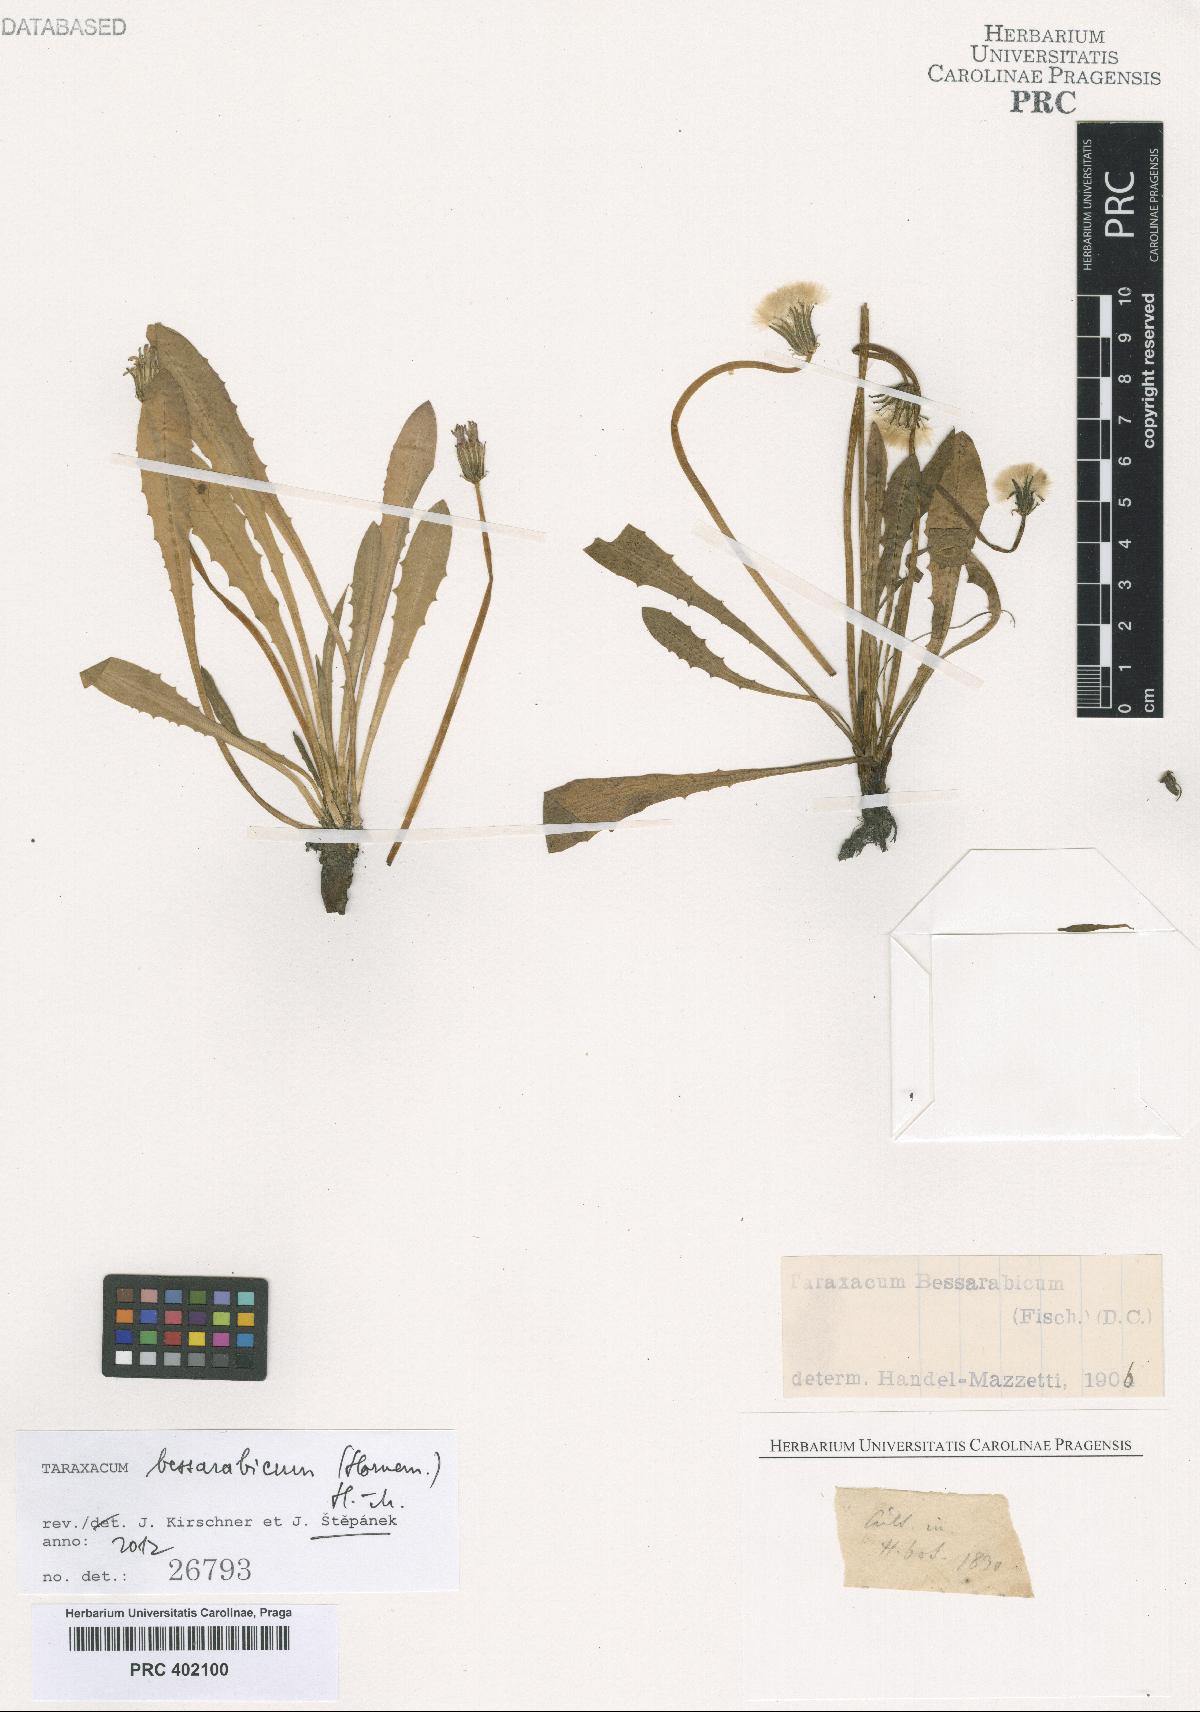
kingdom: Plantae
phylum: Tracheophyta
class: Magnoliopsida
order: Asterales
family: Asteraceae
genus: Taraxacum
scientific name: Taraxacum bessarabicum
